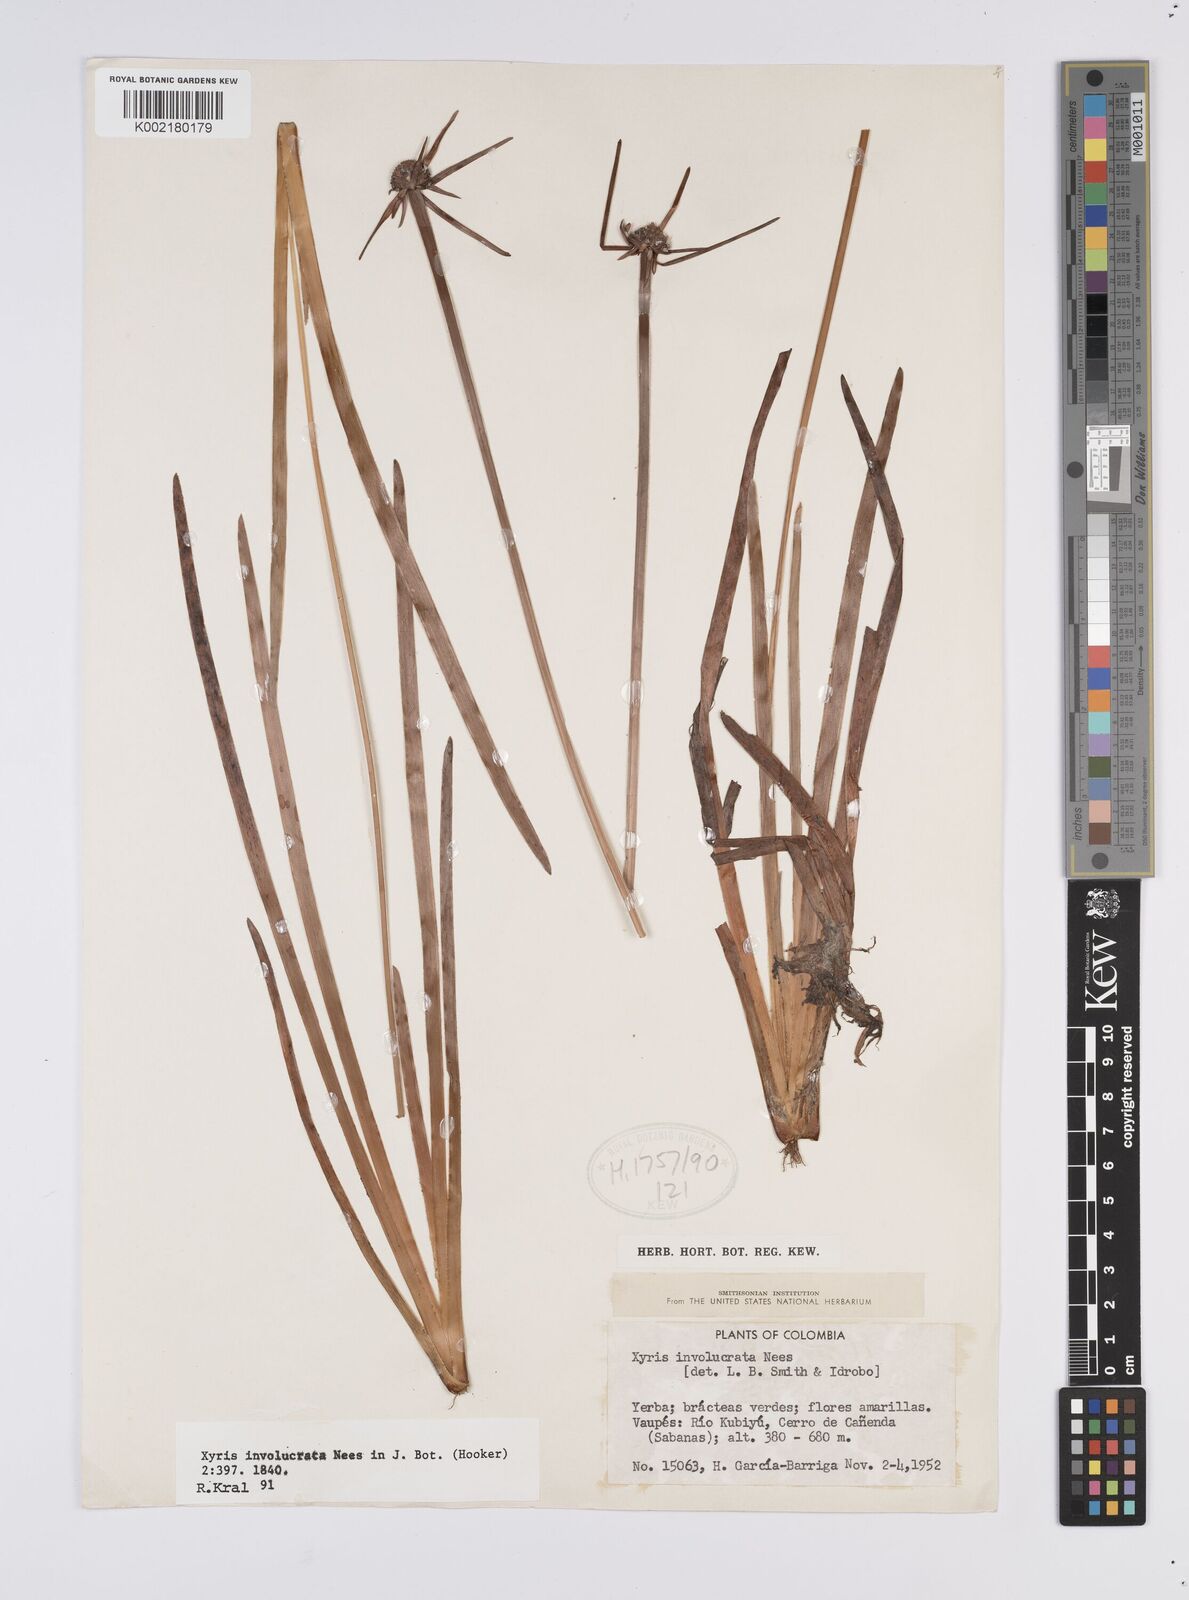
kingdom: Plantae
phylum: Tracheophyta
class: Liliopsida
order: Poales
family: Xyridaceae
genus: Xyris
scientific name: Xyris involucrata
